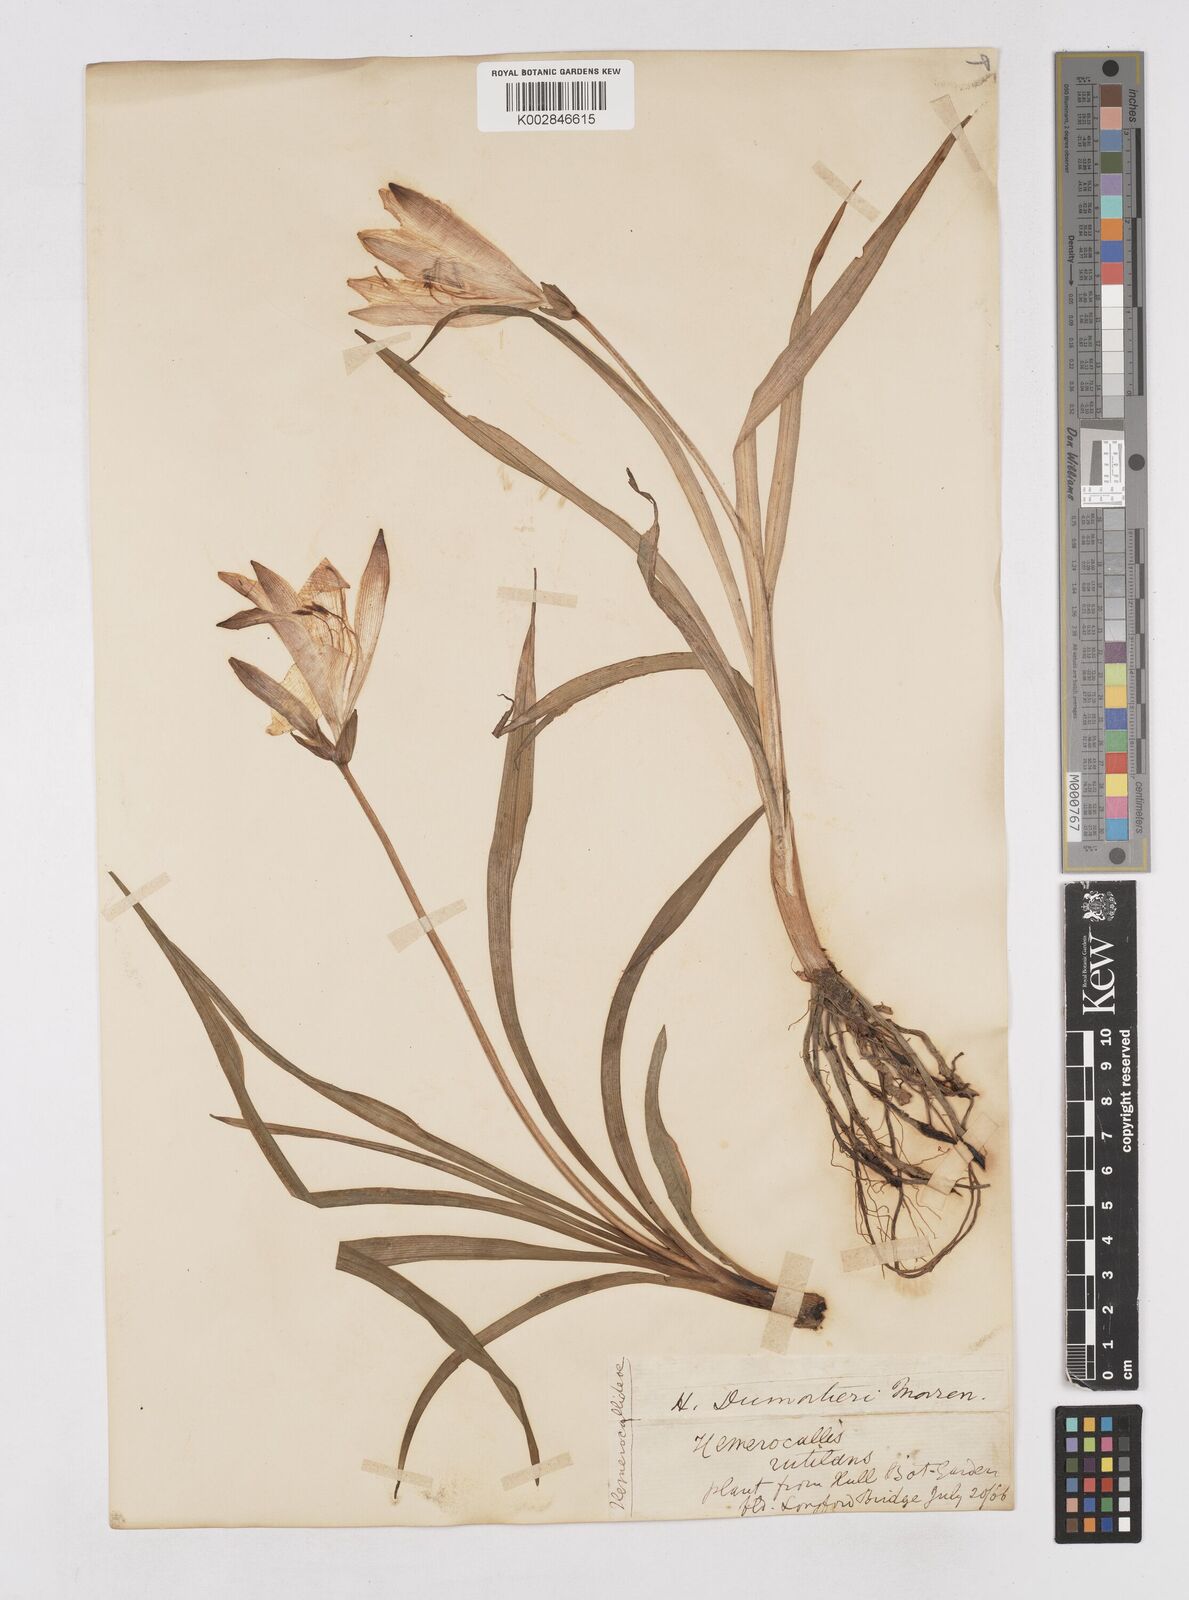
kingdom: Plantae
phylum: Tracheophyta
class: Liliopsida
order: Asparagales
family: Asphodelaceae
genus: Hemerocallis
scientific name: Hemerocallis dumortieri
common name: Dumortier's day-lily
